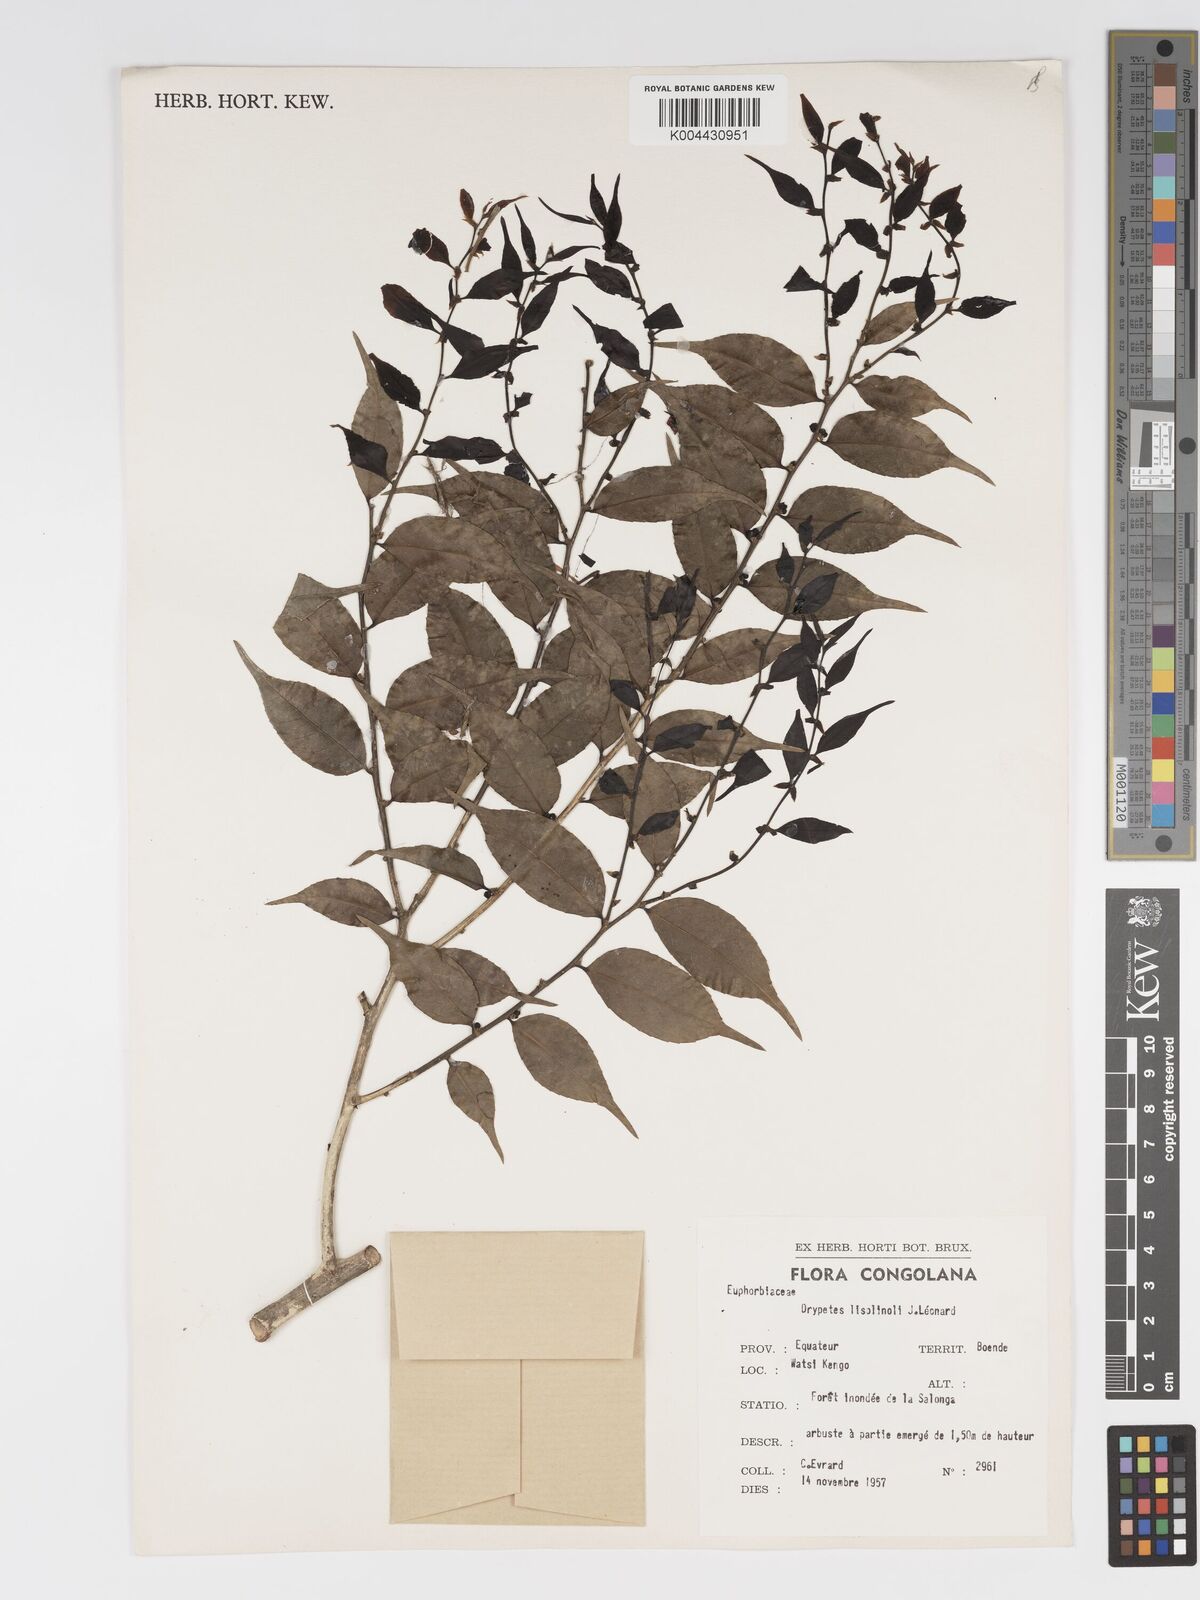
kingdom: Plantae
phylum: Tracheophyta
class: Magnoliopsida
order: Malpighiales
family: Putranjivaceae
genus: Drypetes
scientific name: Drypetes
